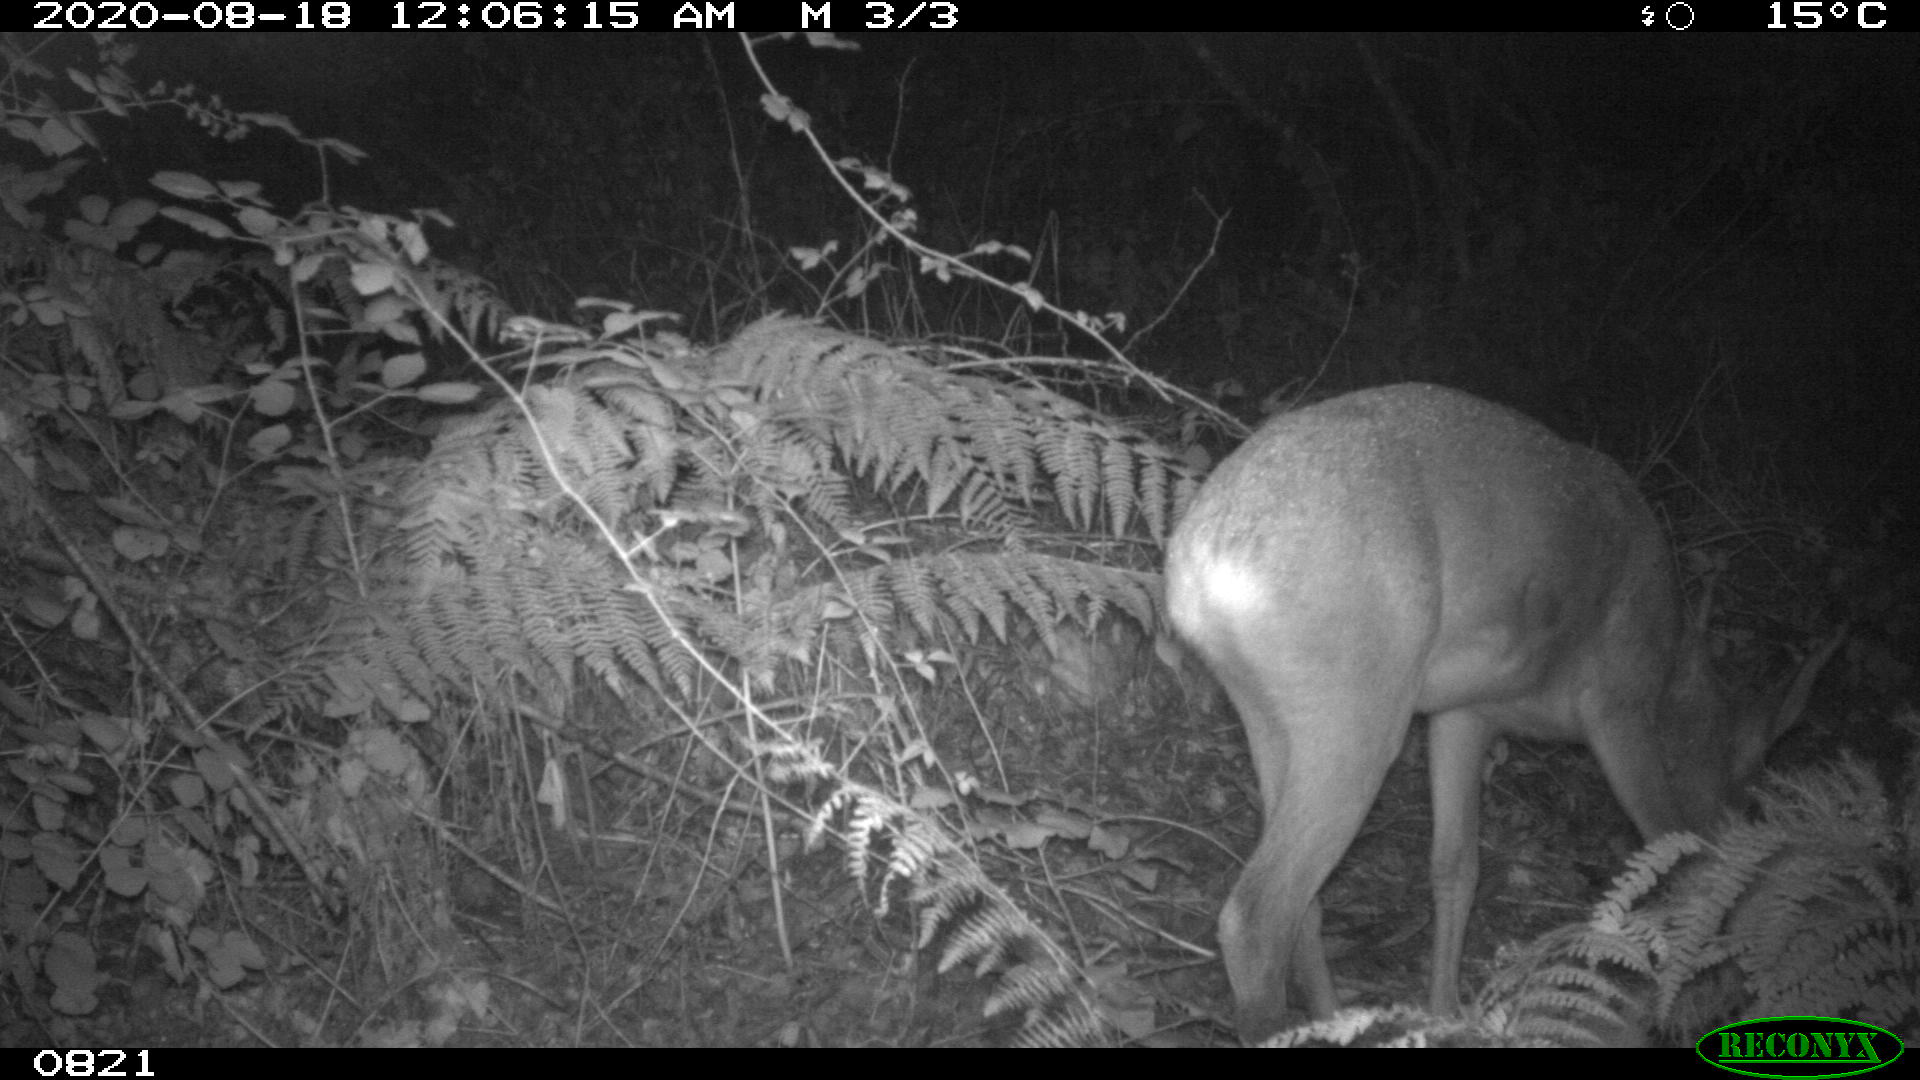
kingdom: Animalia
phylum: Chordata
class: Mammalia
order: Artiodactyla
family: Cervidae
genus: Capreolus
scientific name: Capreolus capreolus
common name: Western roe deer
